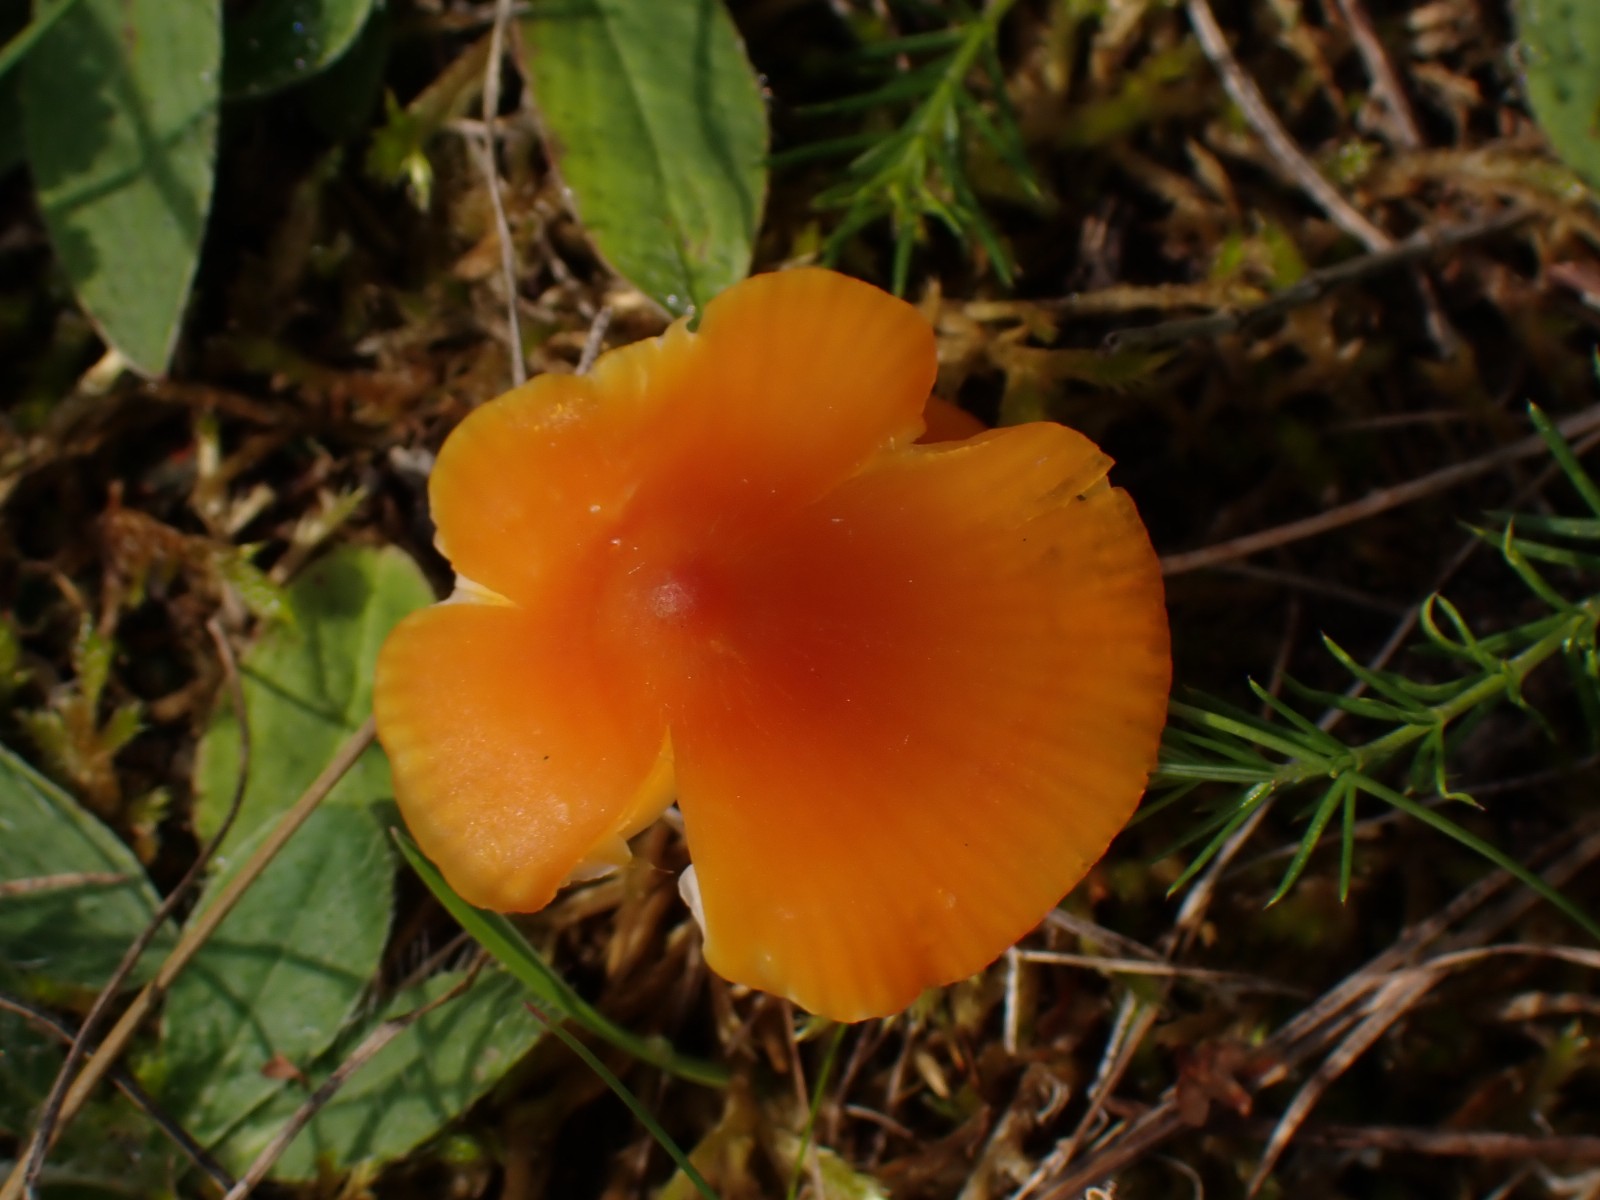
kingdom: Fungi
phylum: Basidiomycota
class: Agaricomycetes
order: Agaricales
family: Hygrophoraceae
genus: Hygrocybe
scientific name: Hygrocybe
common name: vokshat
